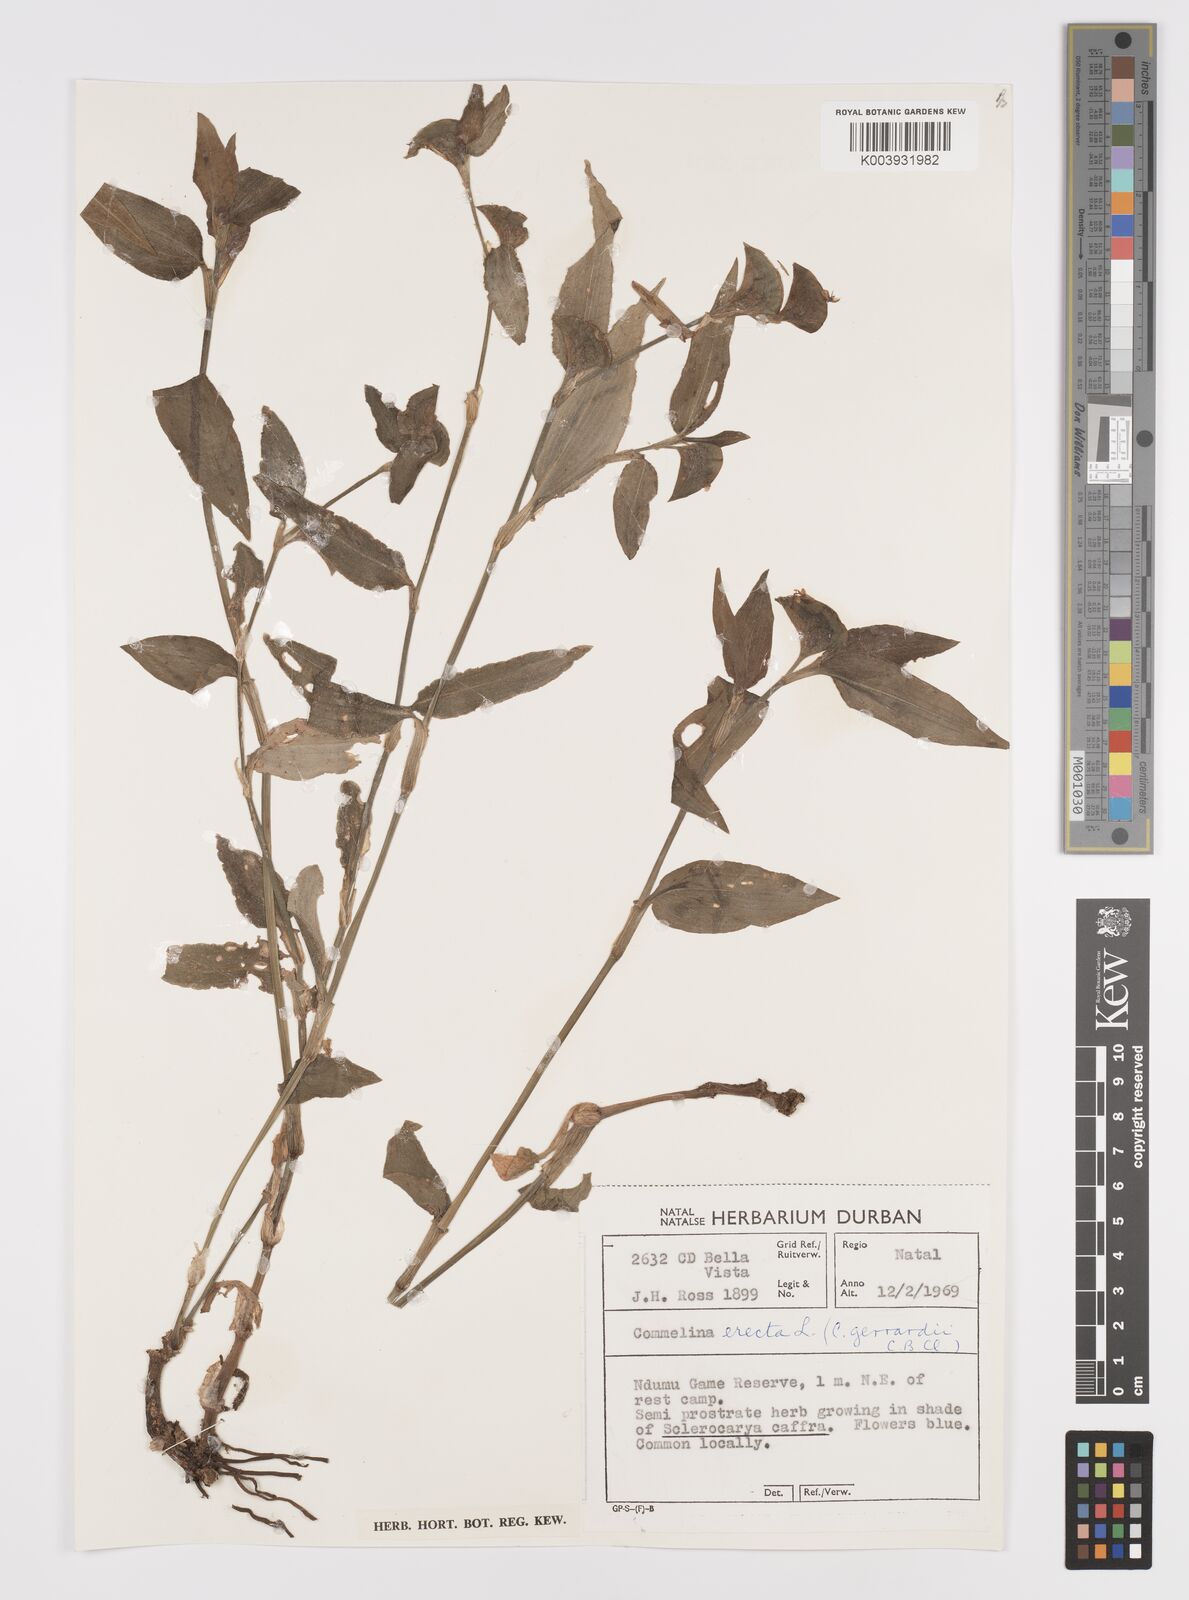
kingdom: Plantae
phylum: Tracheophyta
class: Liliopsida
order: Commelinales
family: Commelinaceae
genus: Commelina
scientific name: Commelina erecta
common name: Blousel blommetjie
